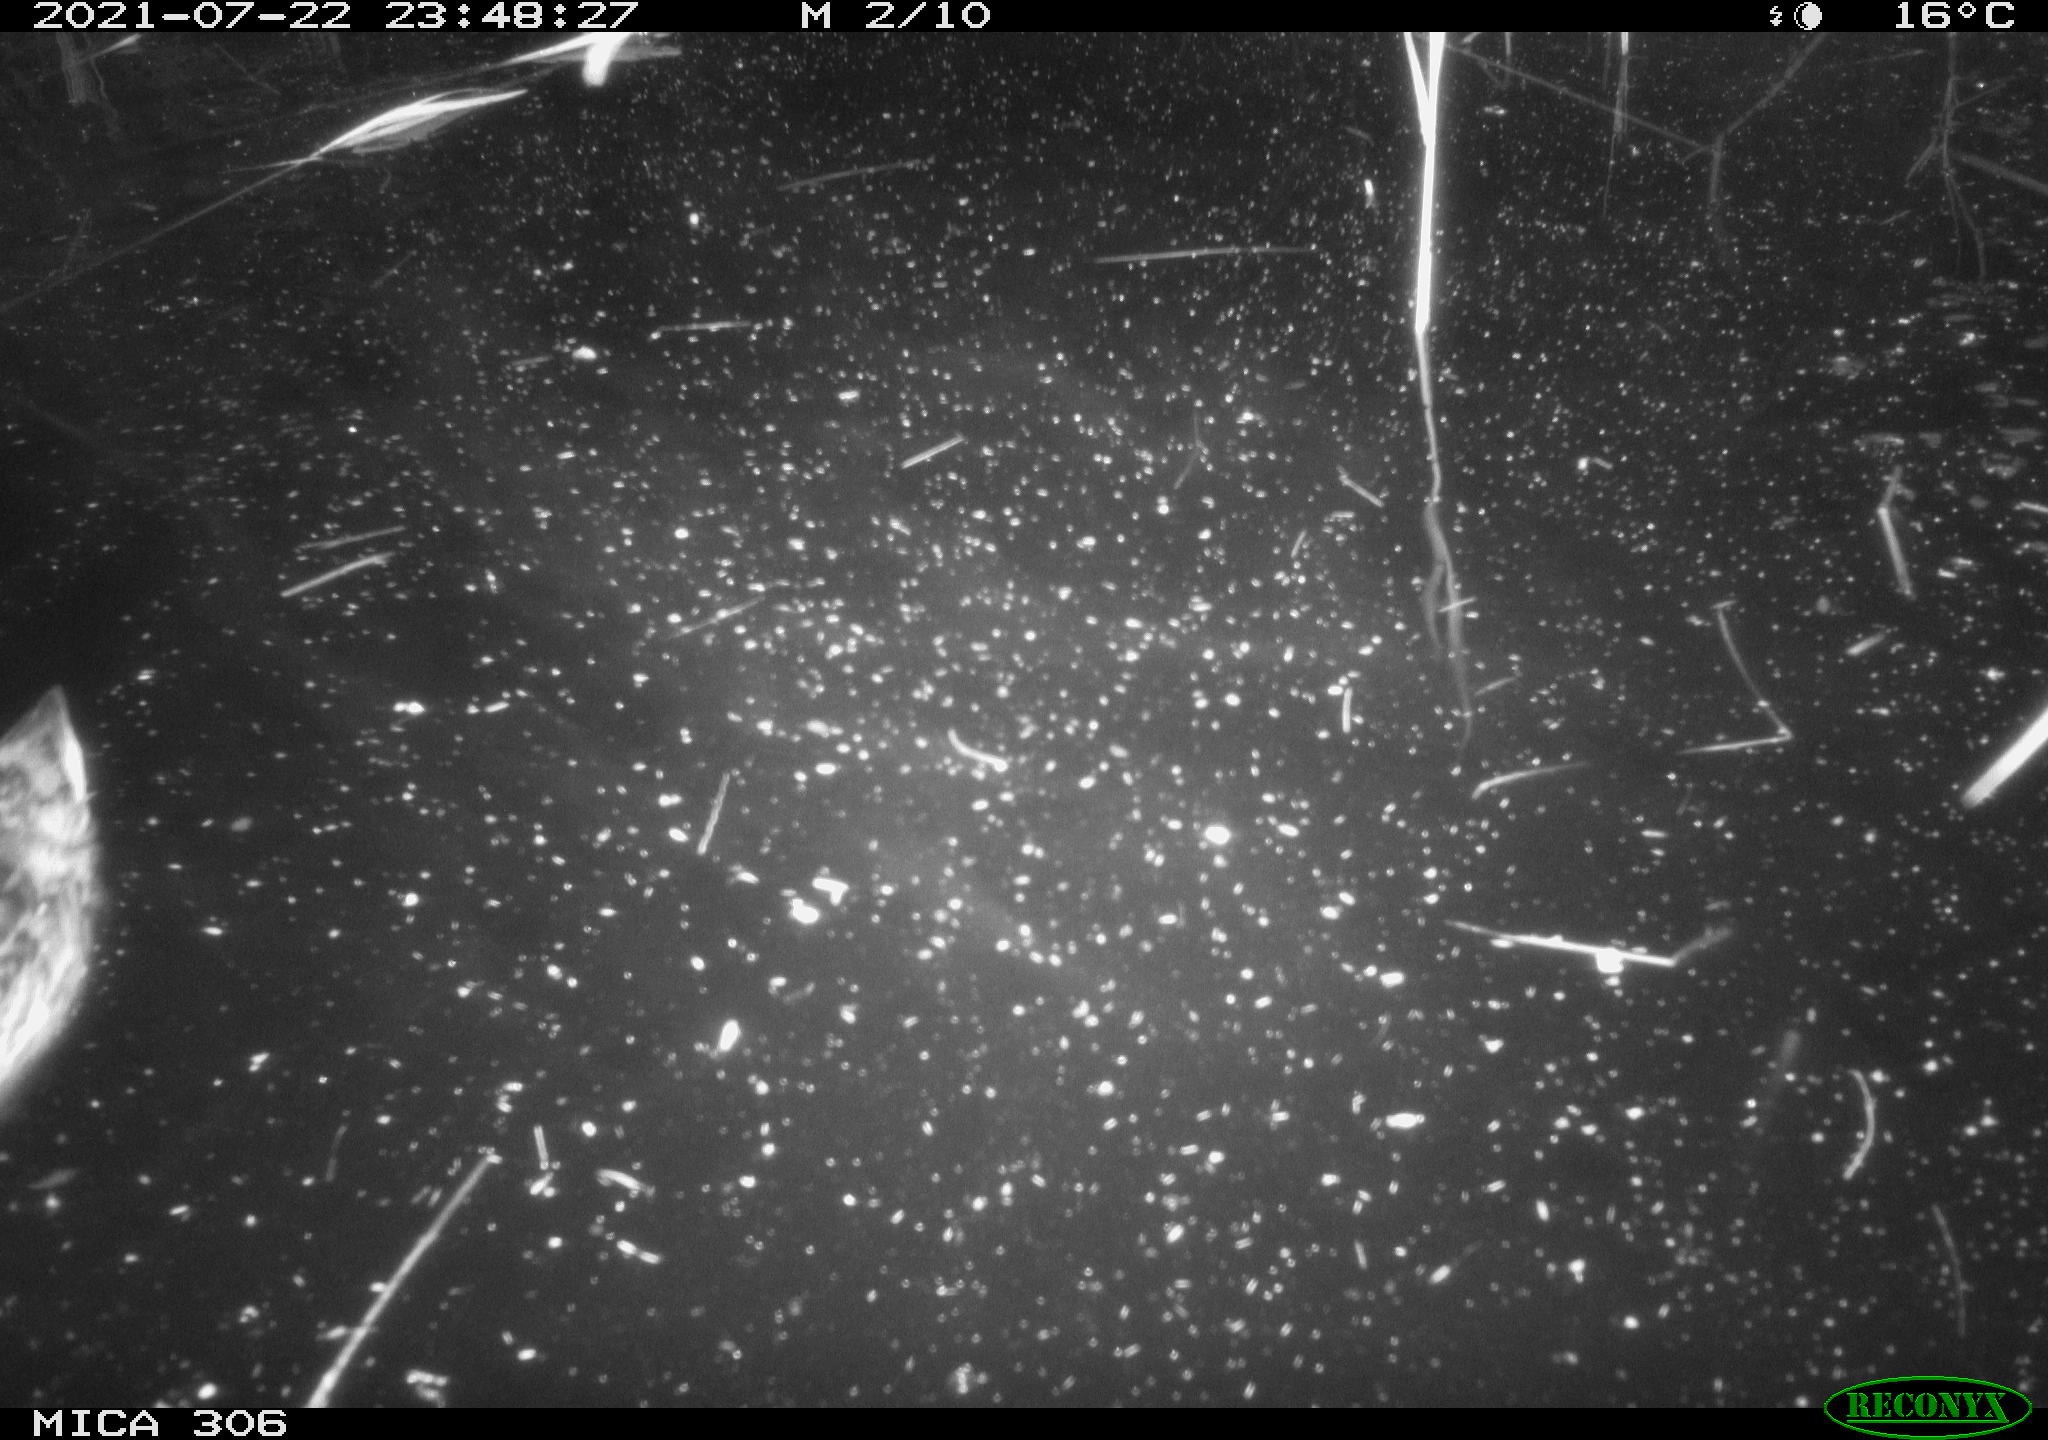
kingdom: Animalia
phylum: Chordata
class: Aves
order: Anseriformes
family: Anatidae
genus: Anas
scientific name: Anas platyrhynchos
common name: Mallard
